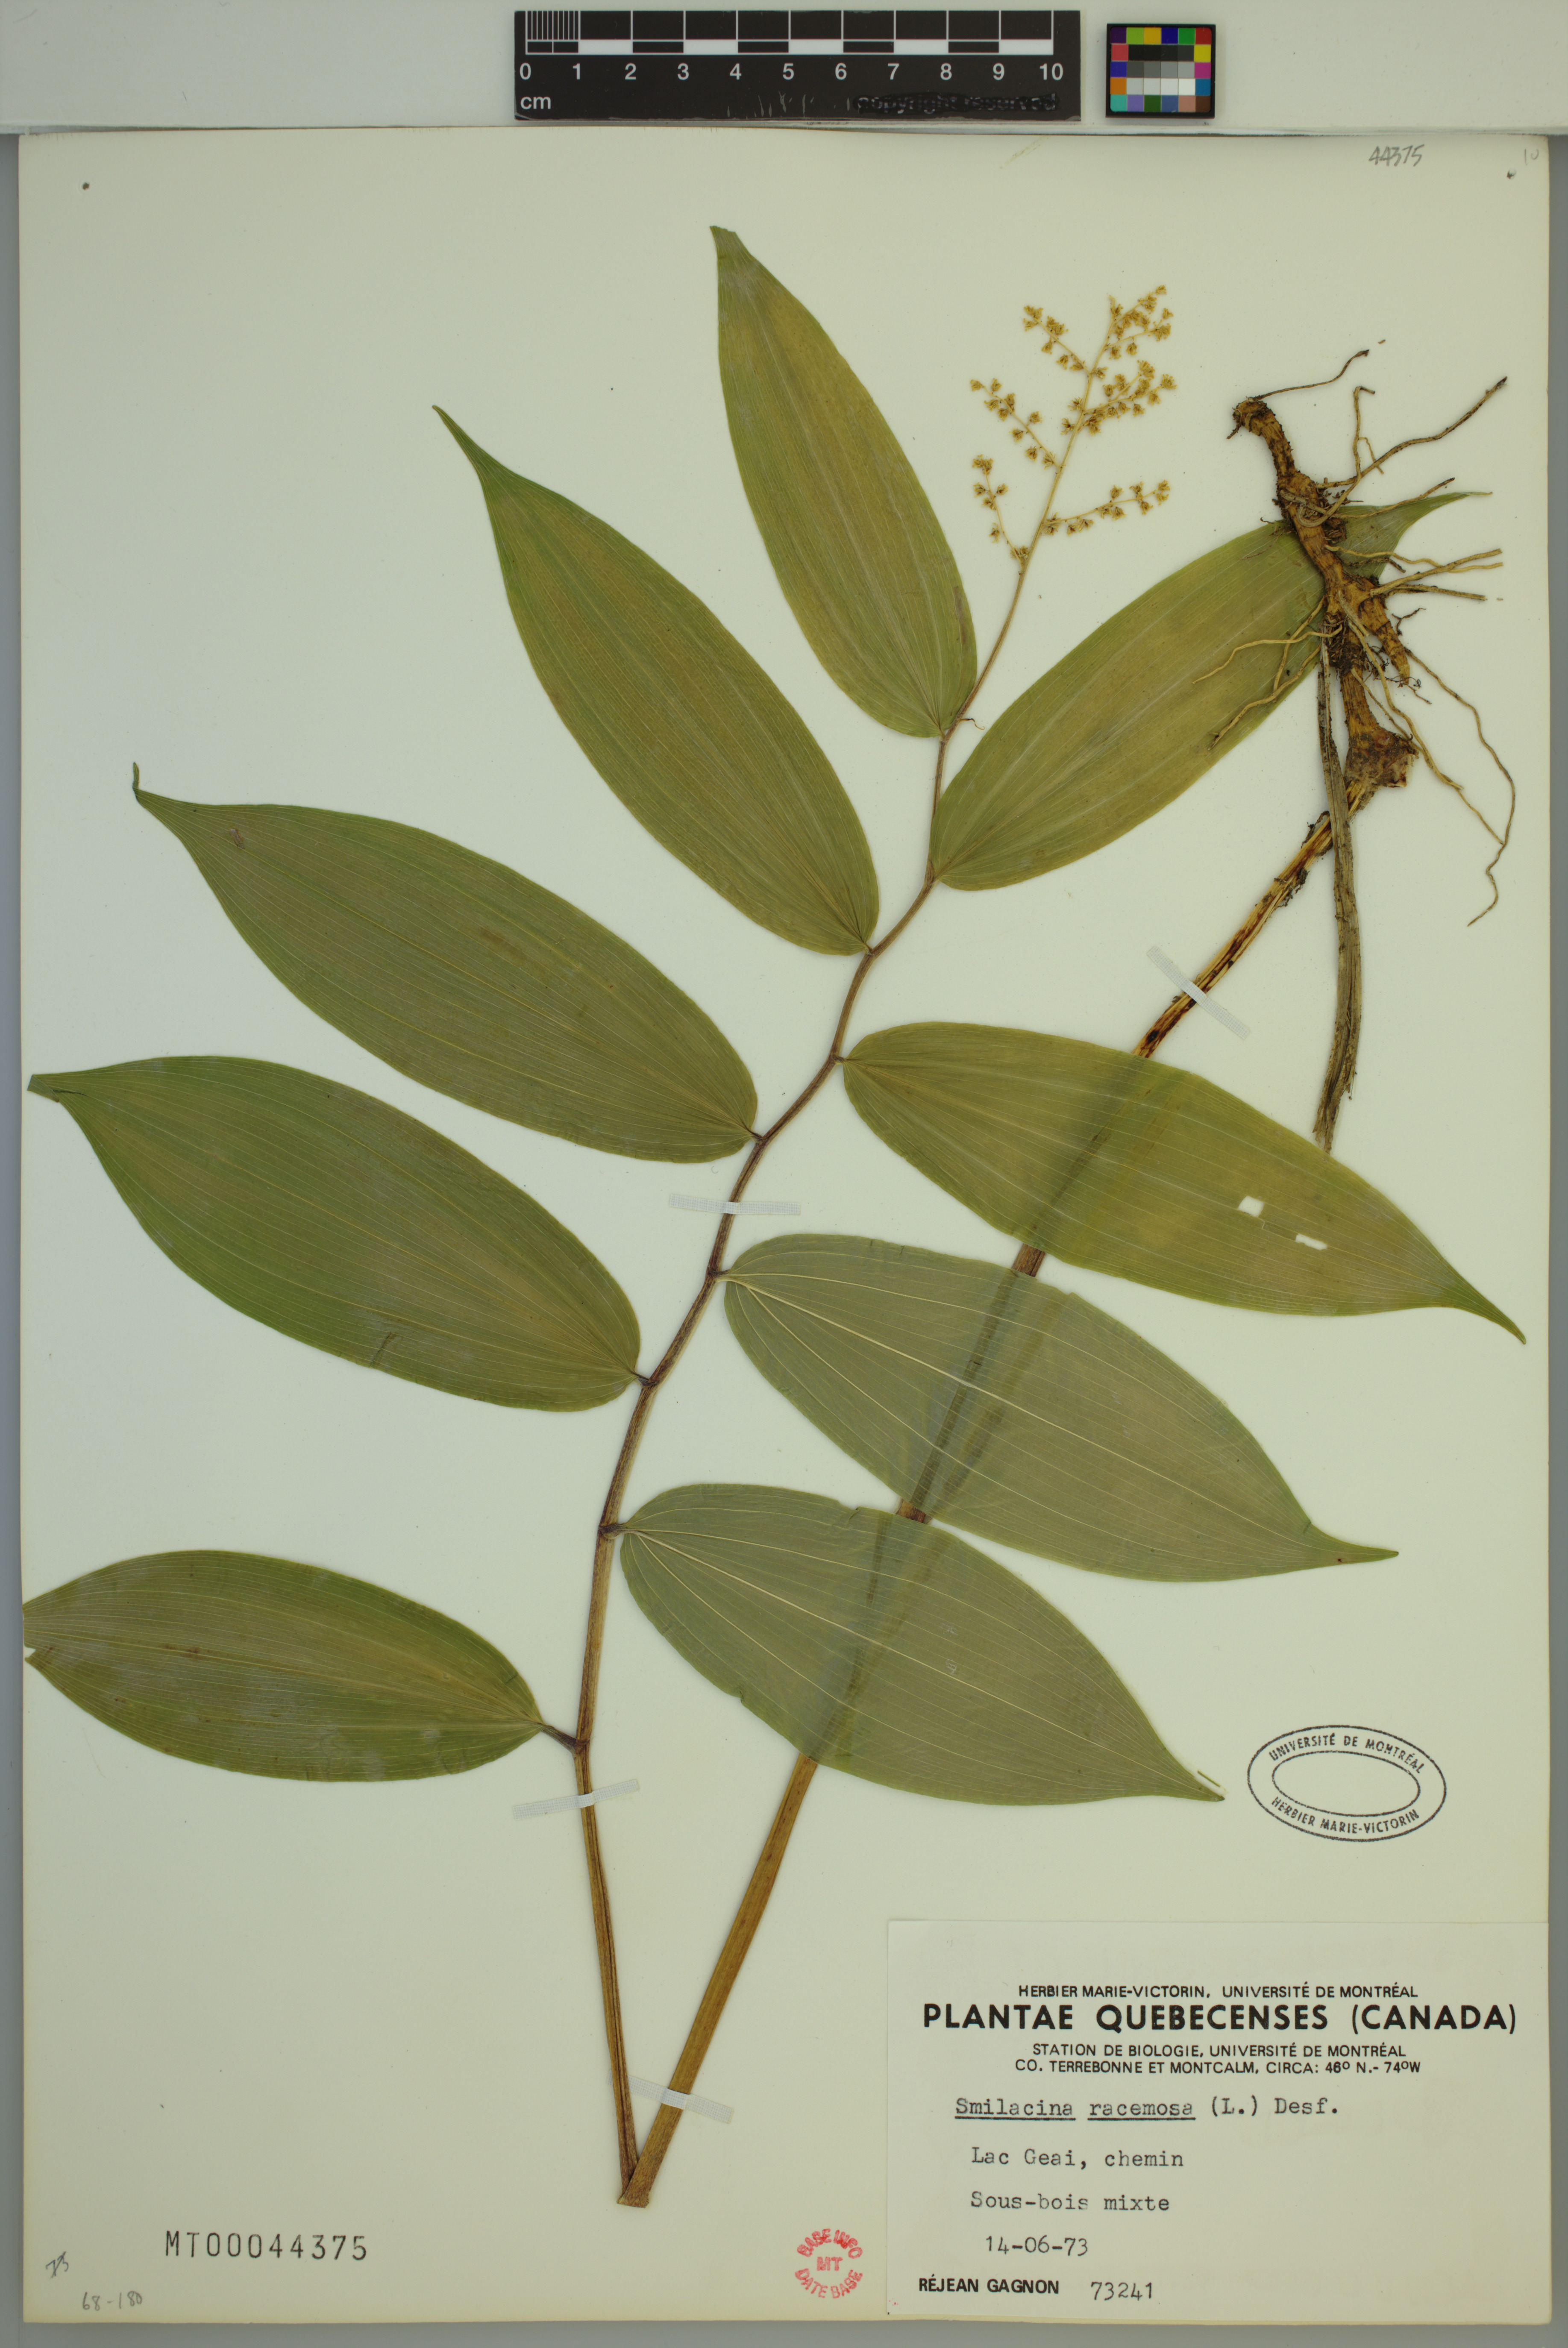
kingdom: Plantae
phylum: Tracheophyta
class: Liliopsida
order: Asparagales
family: Asparagaceae
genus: Maianthemum
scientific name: Maianthemum racemosum
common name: False spikenard
